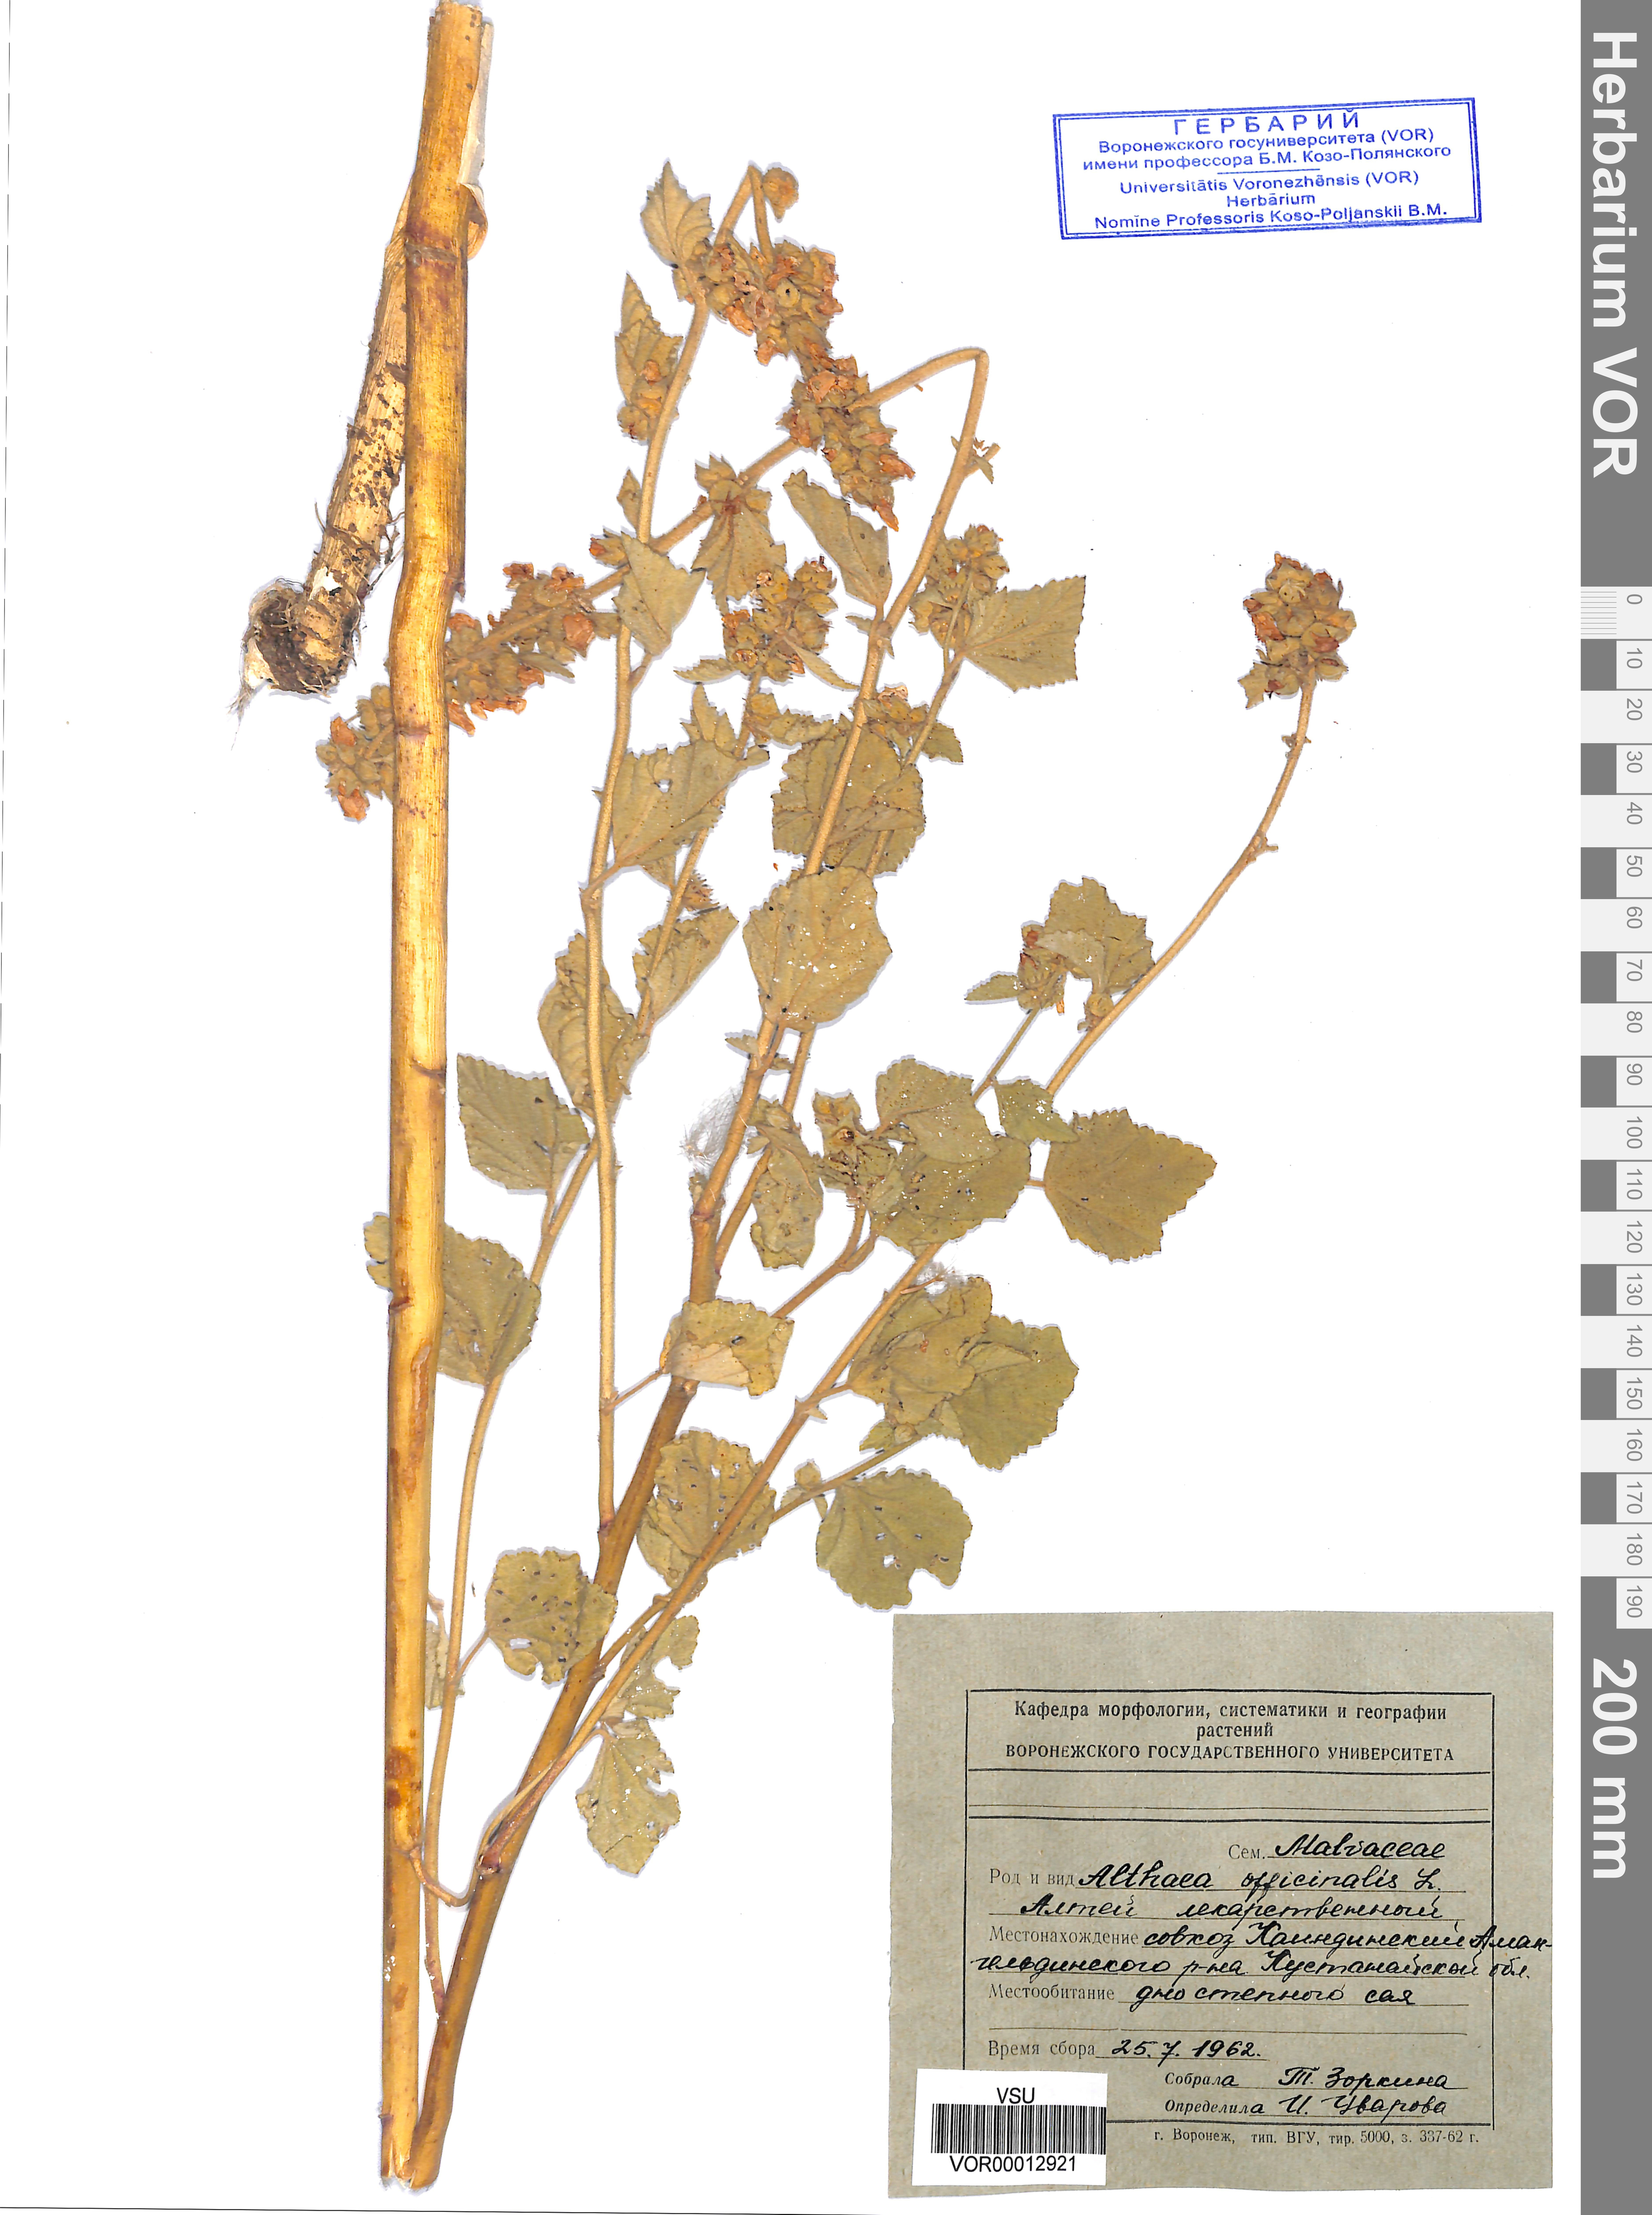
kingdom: Plantae
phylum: Tracheophyta
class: Magnoliopsida
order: Malvales
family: Malvaceae
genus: Althaea
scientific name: Althaea officinalis
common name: Marsh-mallow
